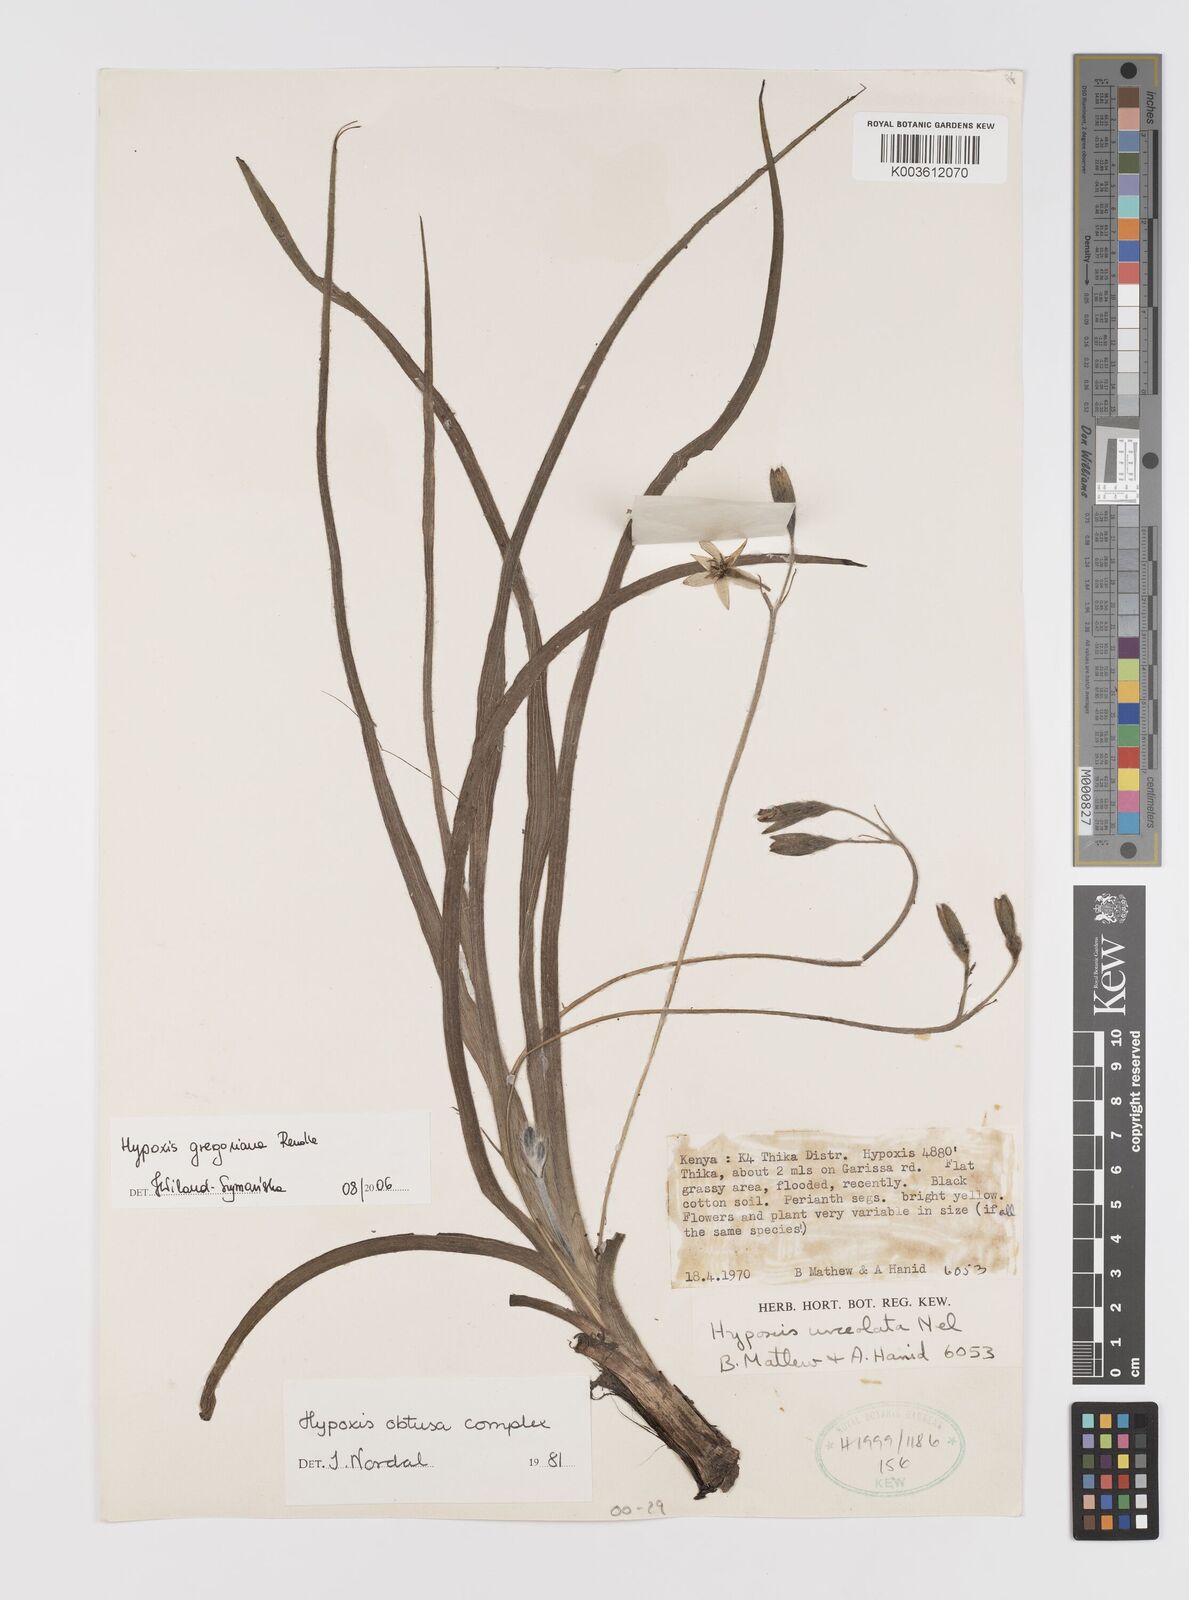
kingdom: Plantae
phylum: Tracheophyta
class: Liliopsida
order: Asparagales
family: Hypoxidaceae
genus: Hypoxis
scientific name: Hypoxis gregoriana
